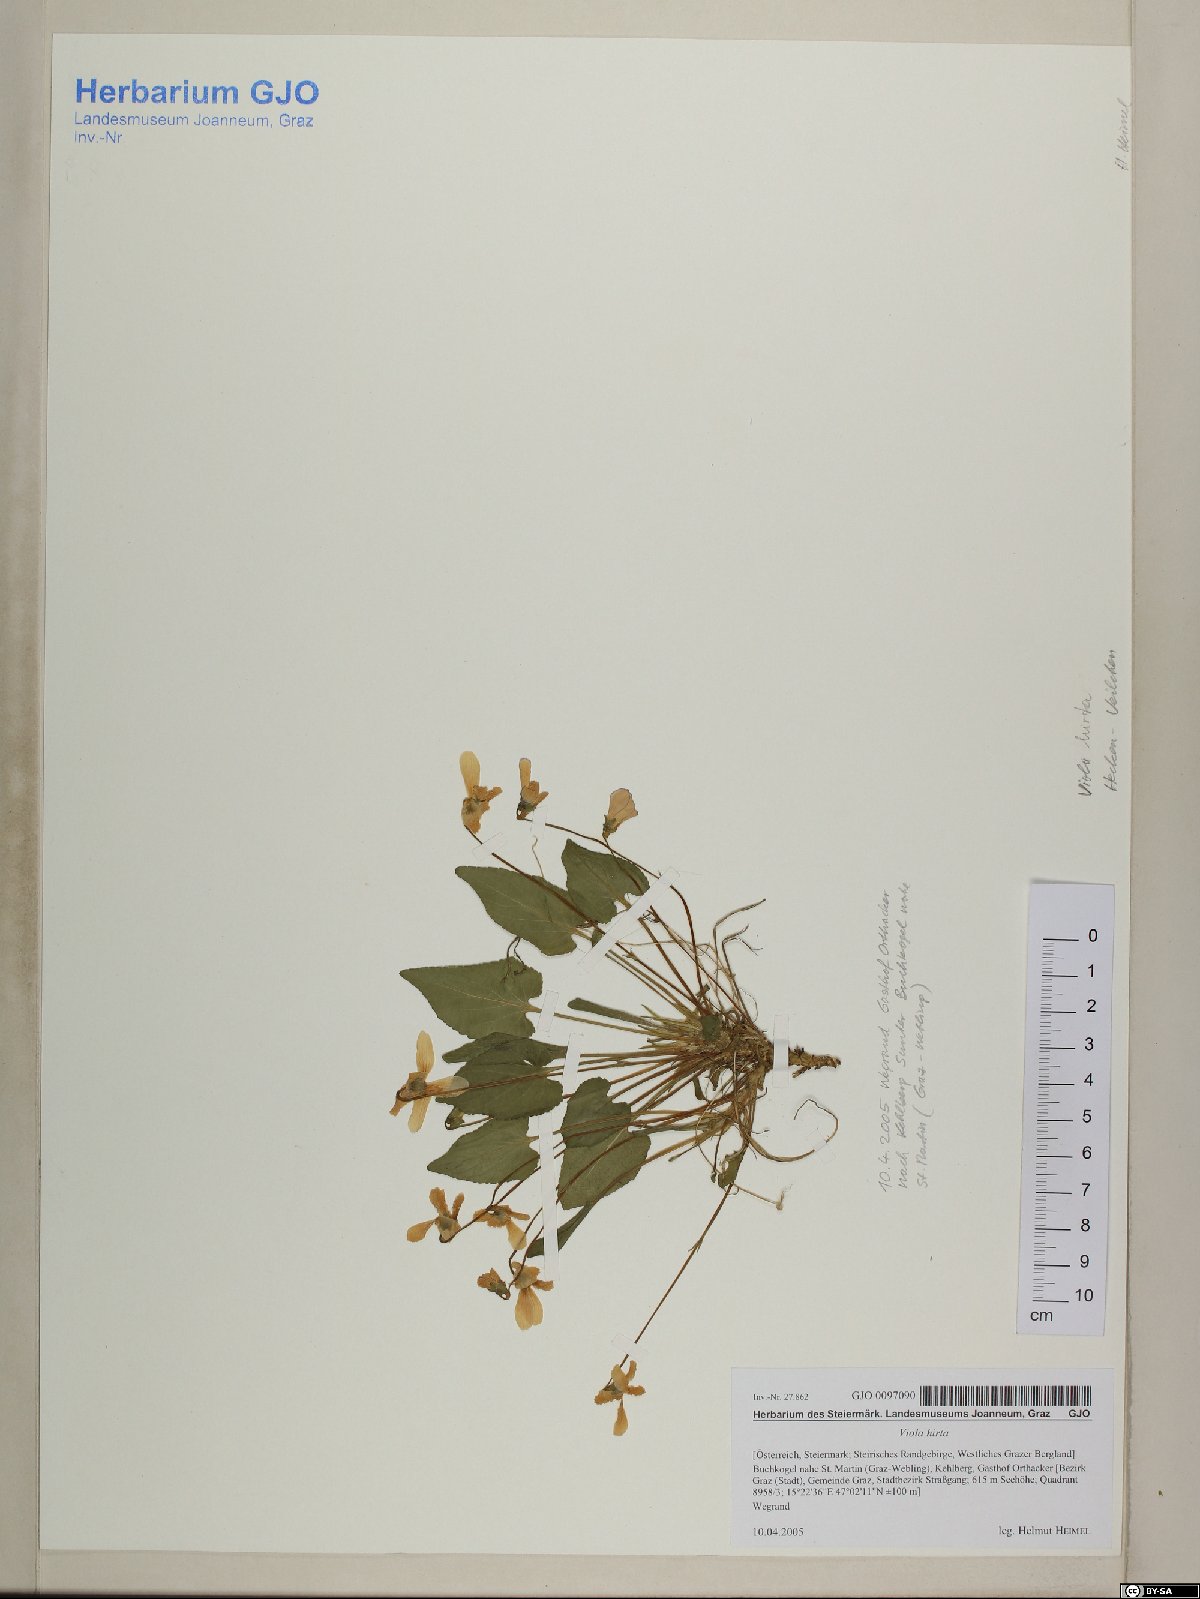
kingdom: Plantae
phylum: Tracheophyta
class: Magnoliopsida
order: Malpighiales
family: Violaceae
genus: Viola
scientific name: Viola hirta
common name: Hairy violet
